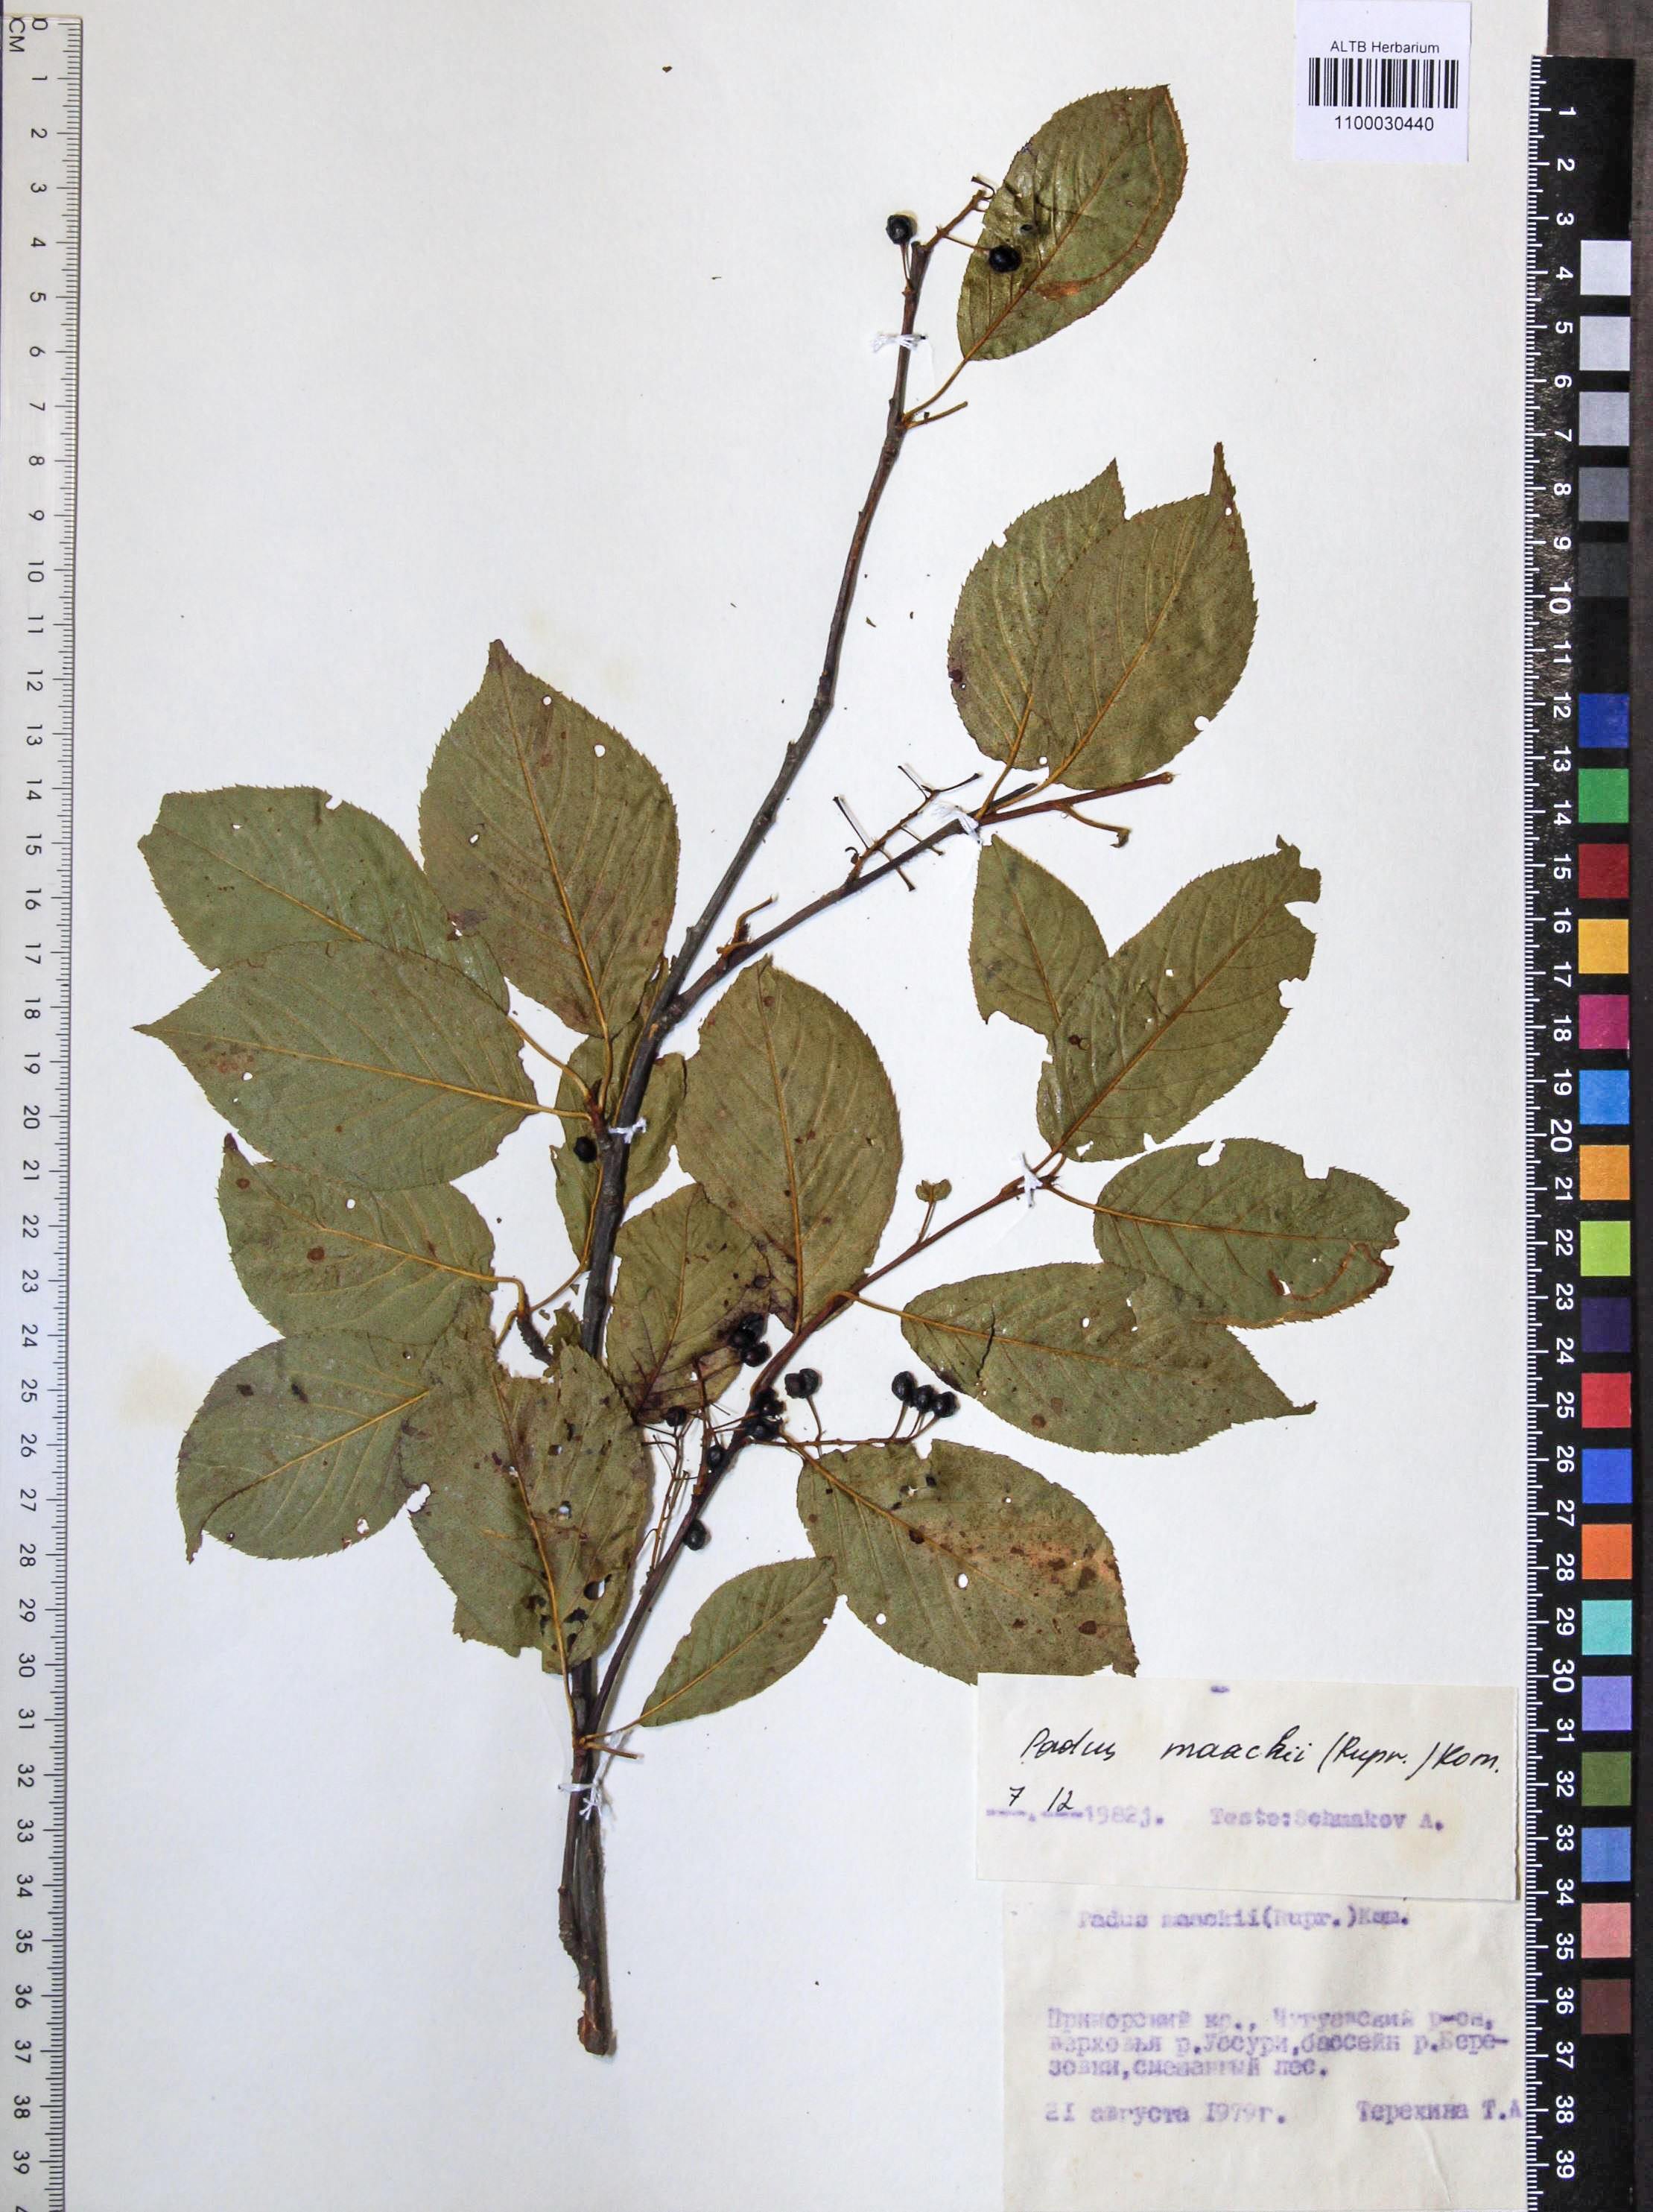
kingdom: Plantae
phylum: Tracheophyta
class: Magnoliopsida
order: Rosales
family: Rosaceae
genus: Prunus
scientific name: Prunus glandulifolia
